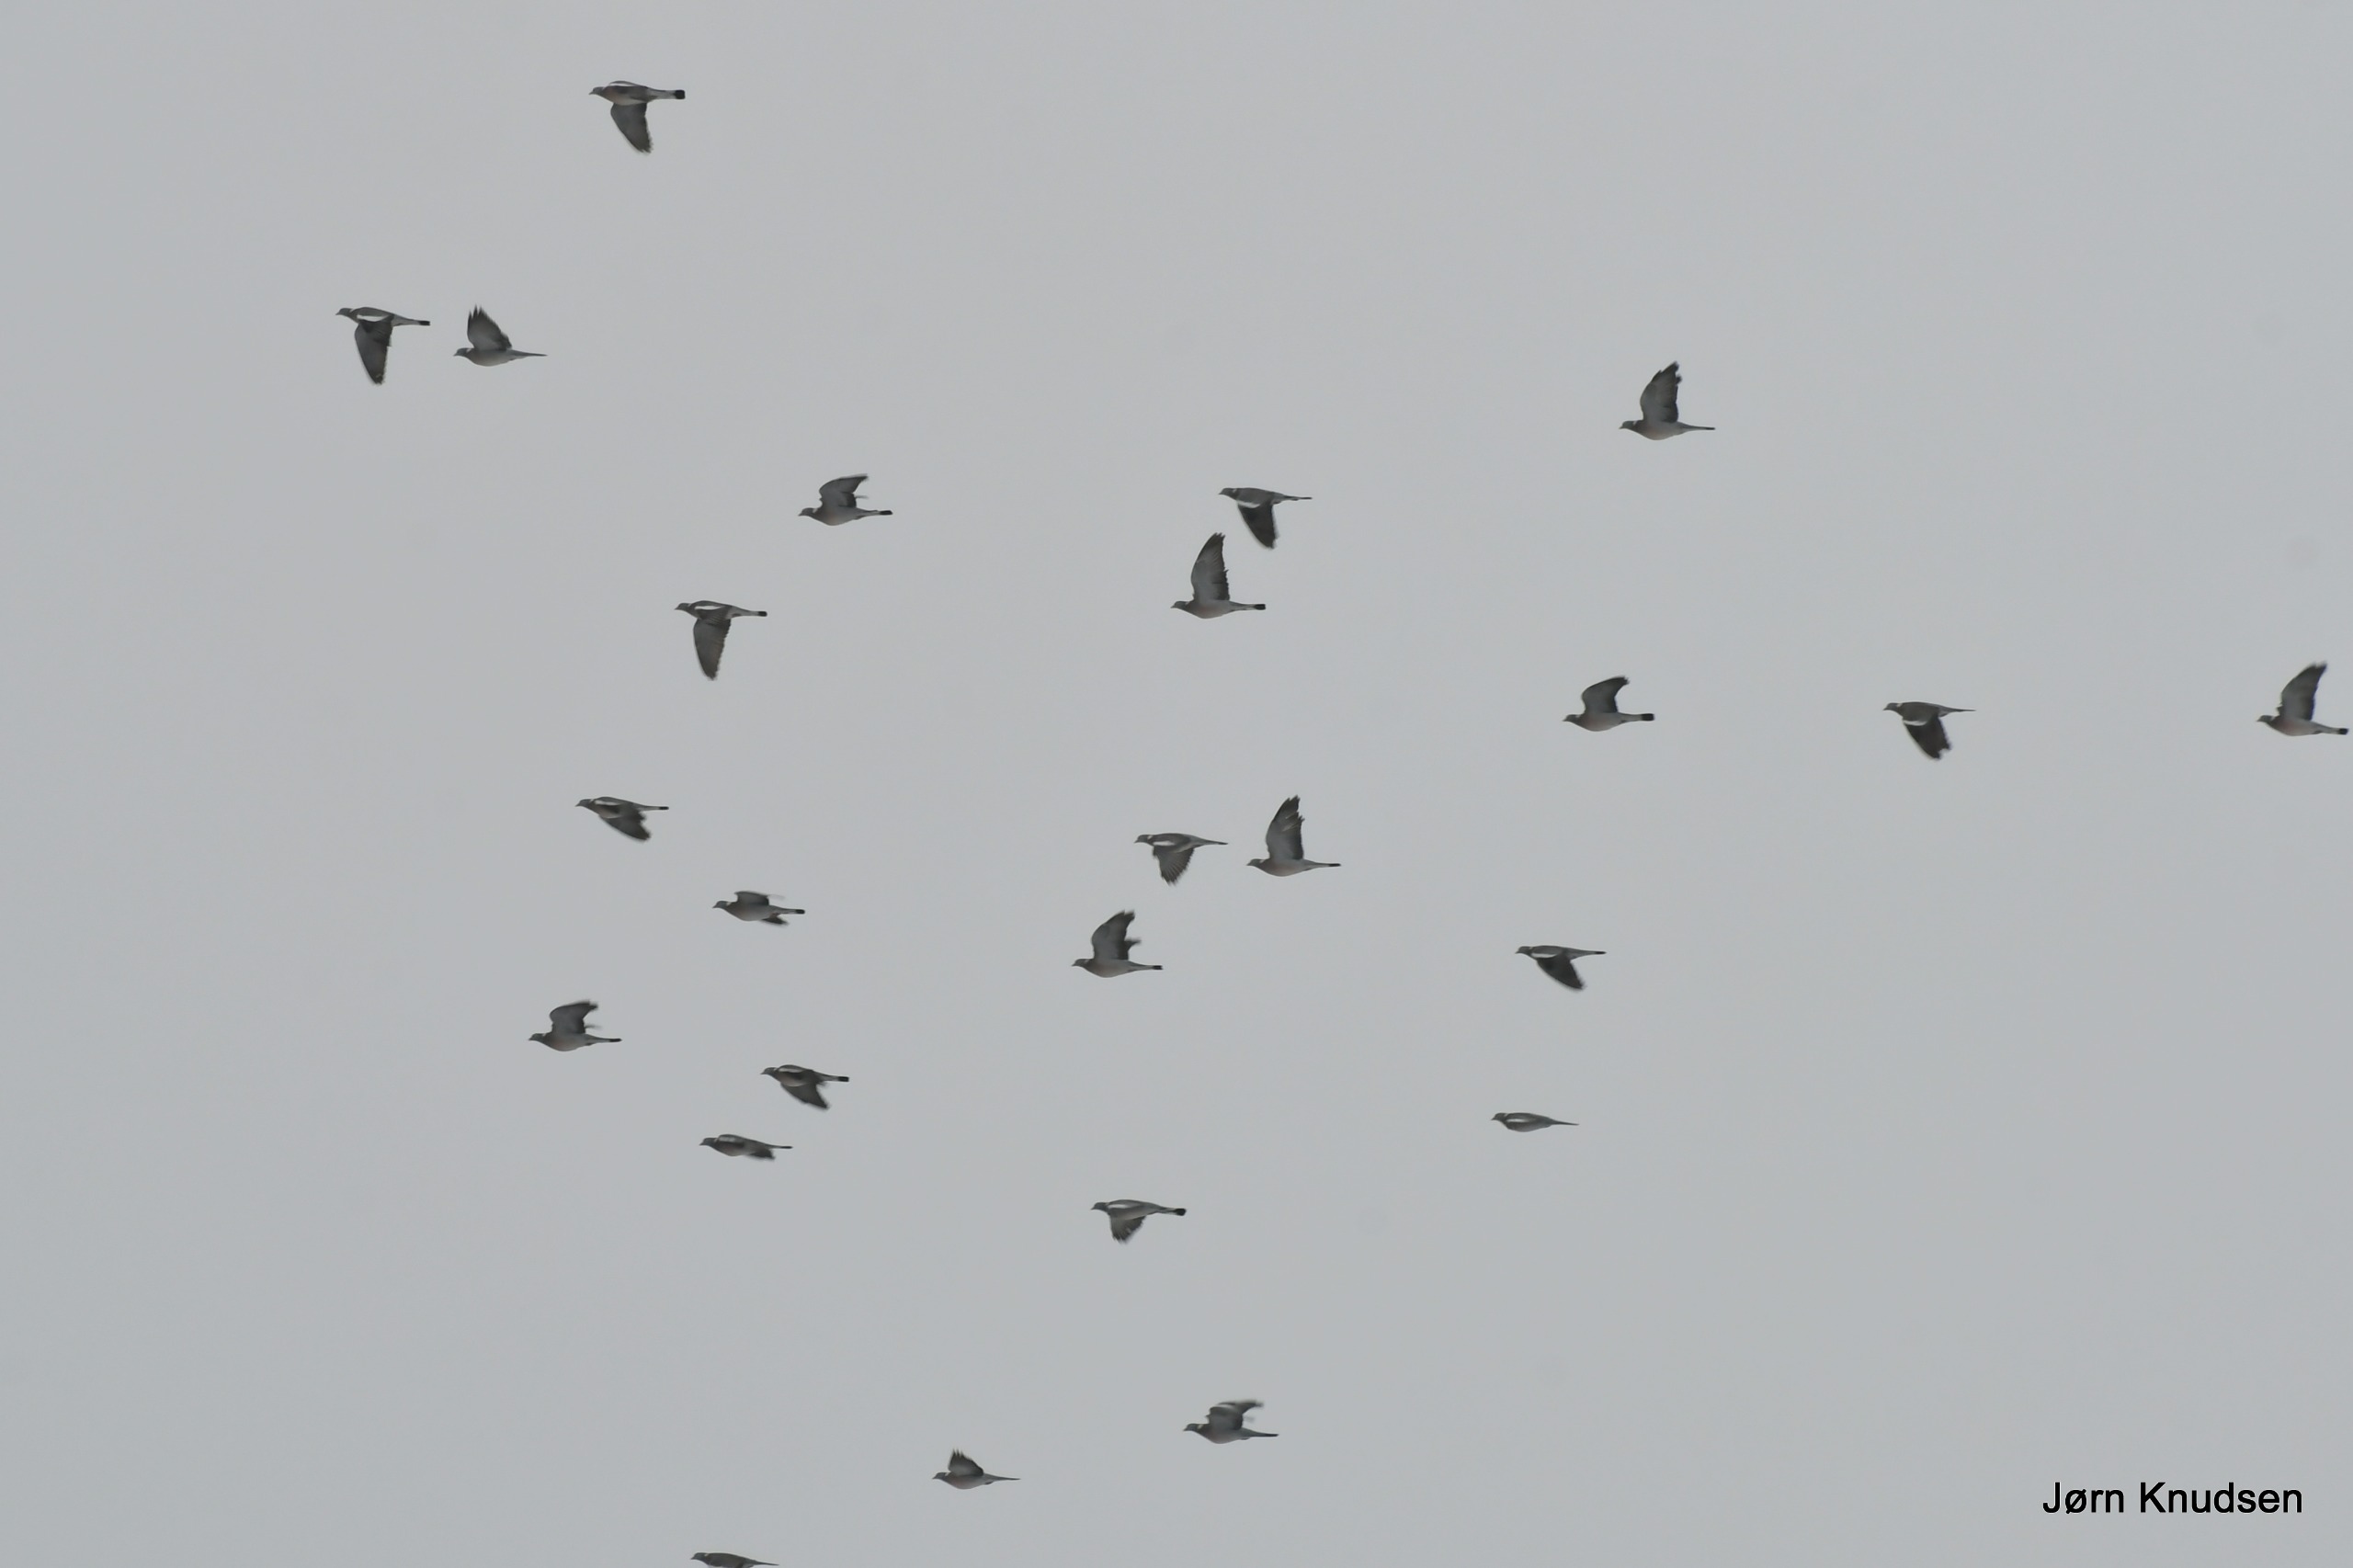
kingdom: Animalia
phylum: Chordata
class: Aves
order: Columbiformes
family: Columbidae
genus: Columba
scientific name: Columba palumbus
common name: Ringdue
